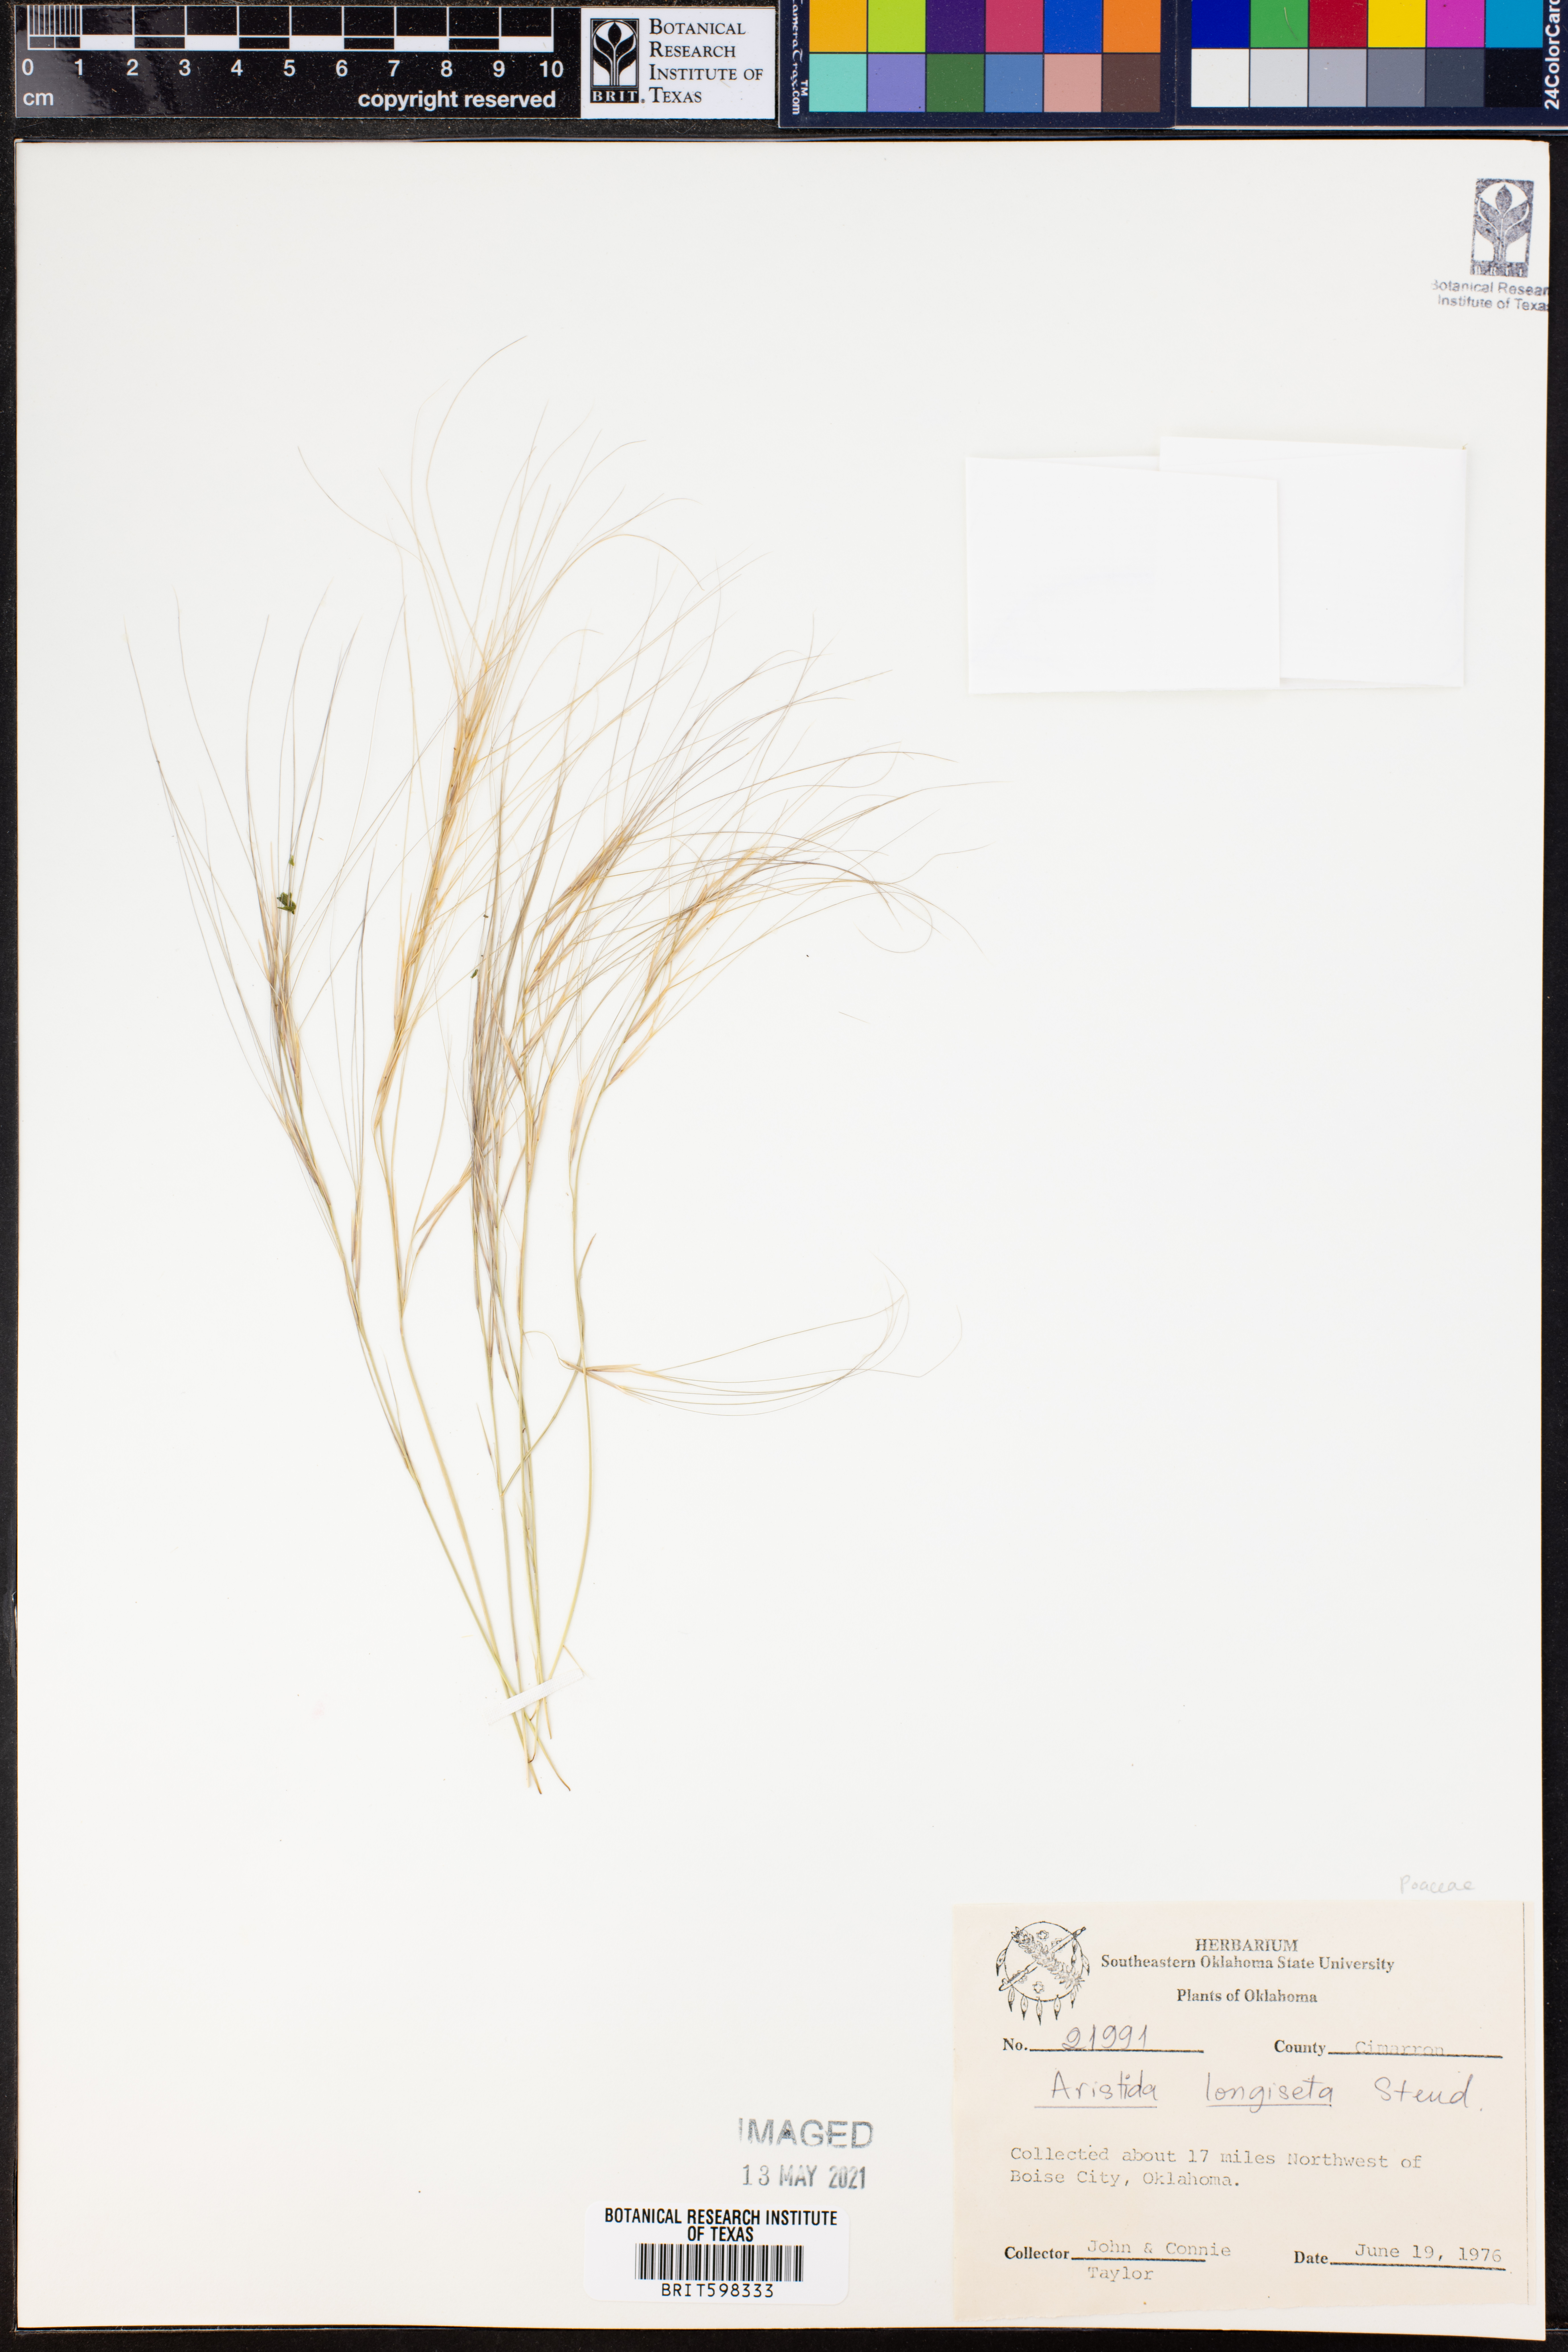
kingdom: Plantae
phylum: Tracheophyta
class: Liliopsida
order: Poales
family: Poaceae
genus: Aristida
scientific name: Aristida longespica
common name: Long-spiked triple-awned grass
